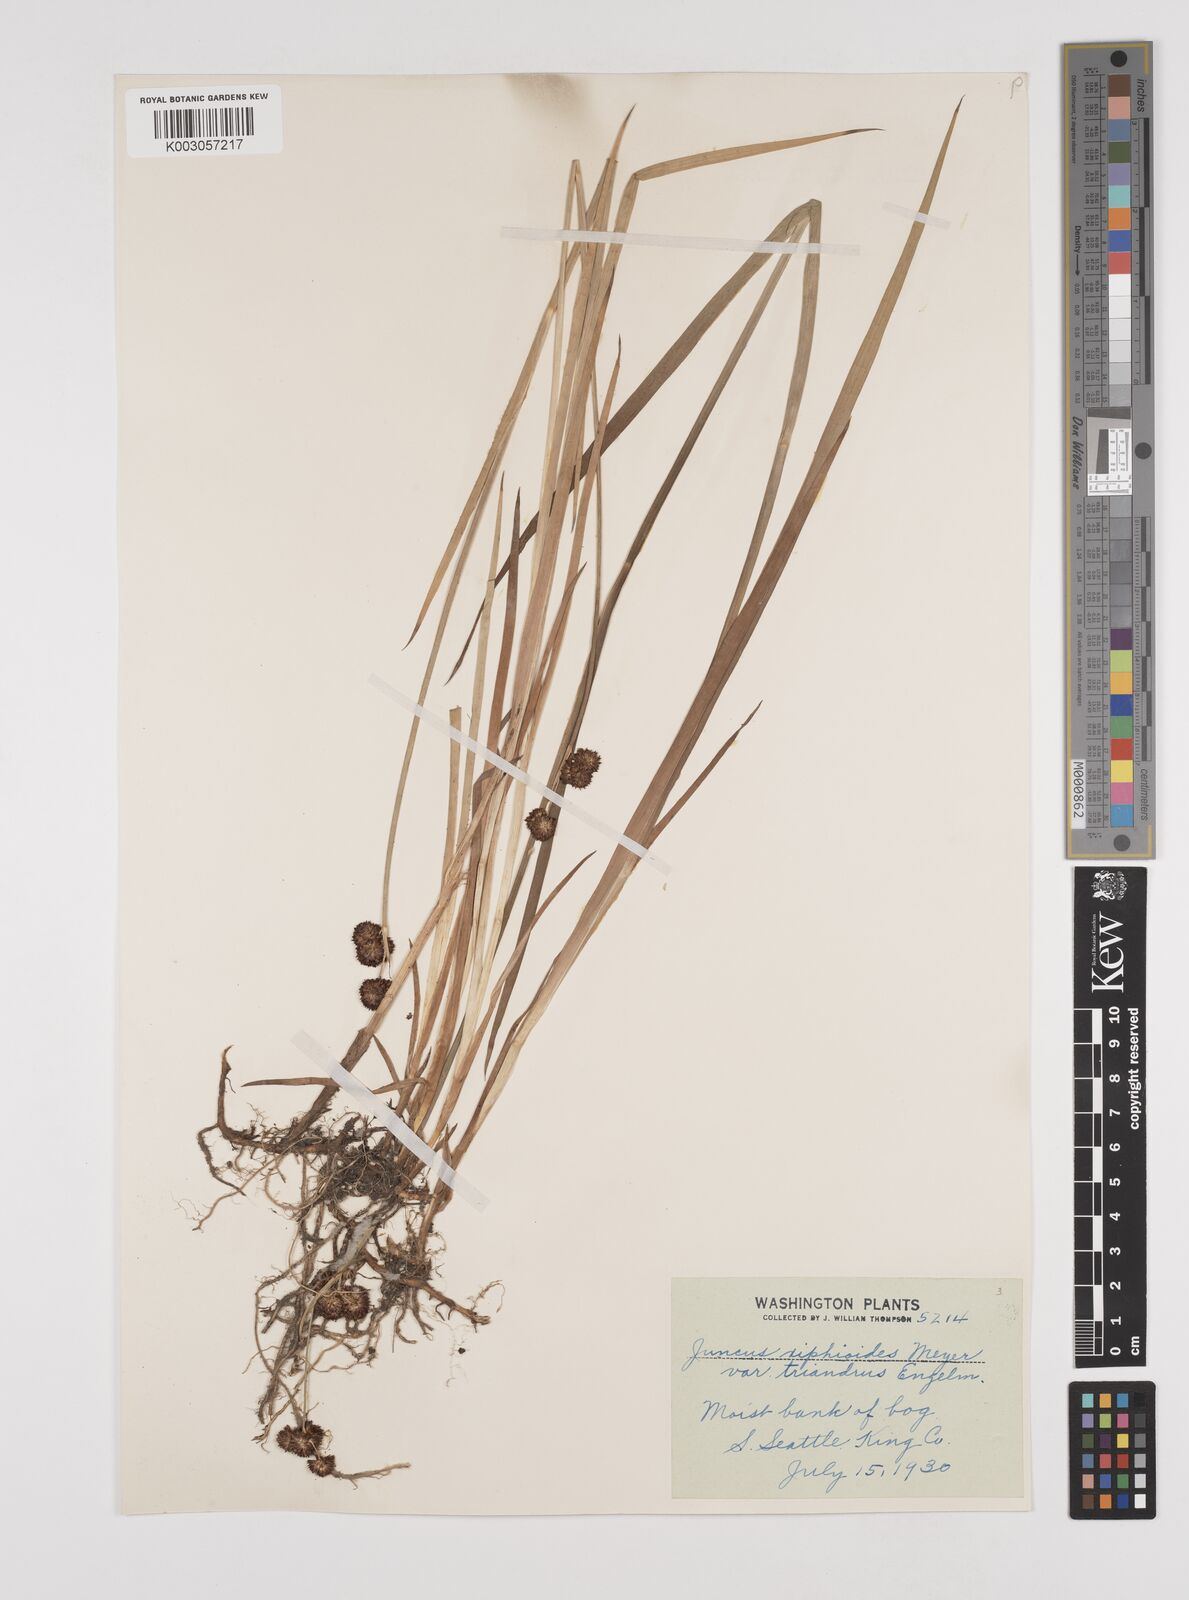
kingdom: Plantae
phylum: Tracheophyta
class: Liliopsida
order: Poales
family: Juncaceae
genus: Juncus
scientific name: Juncus ensifolius
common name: Sword-leaved rush
